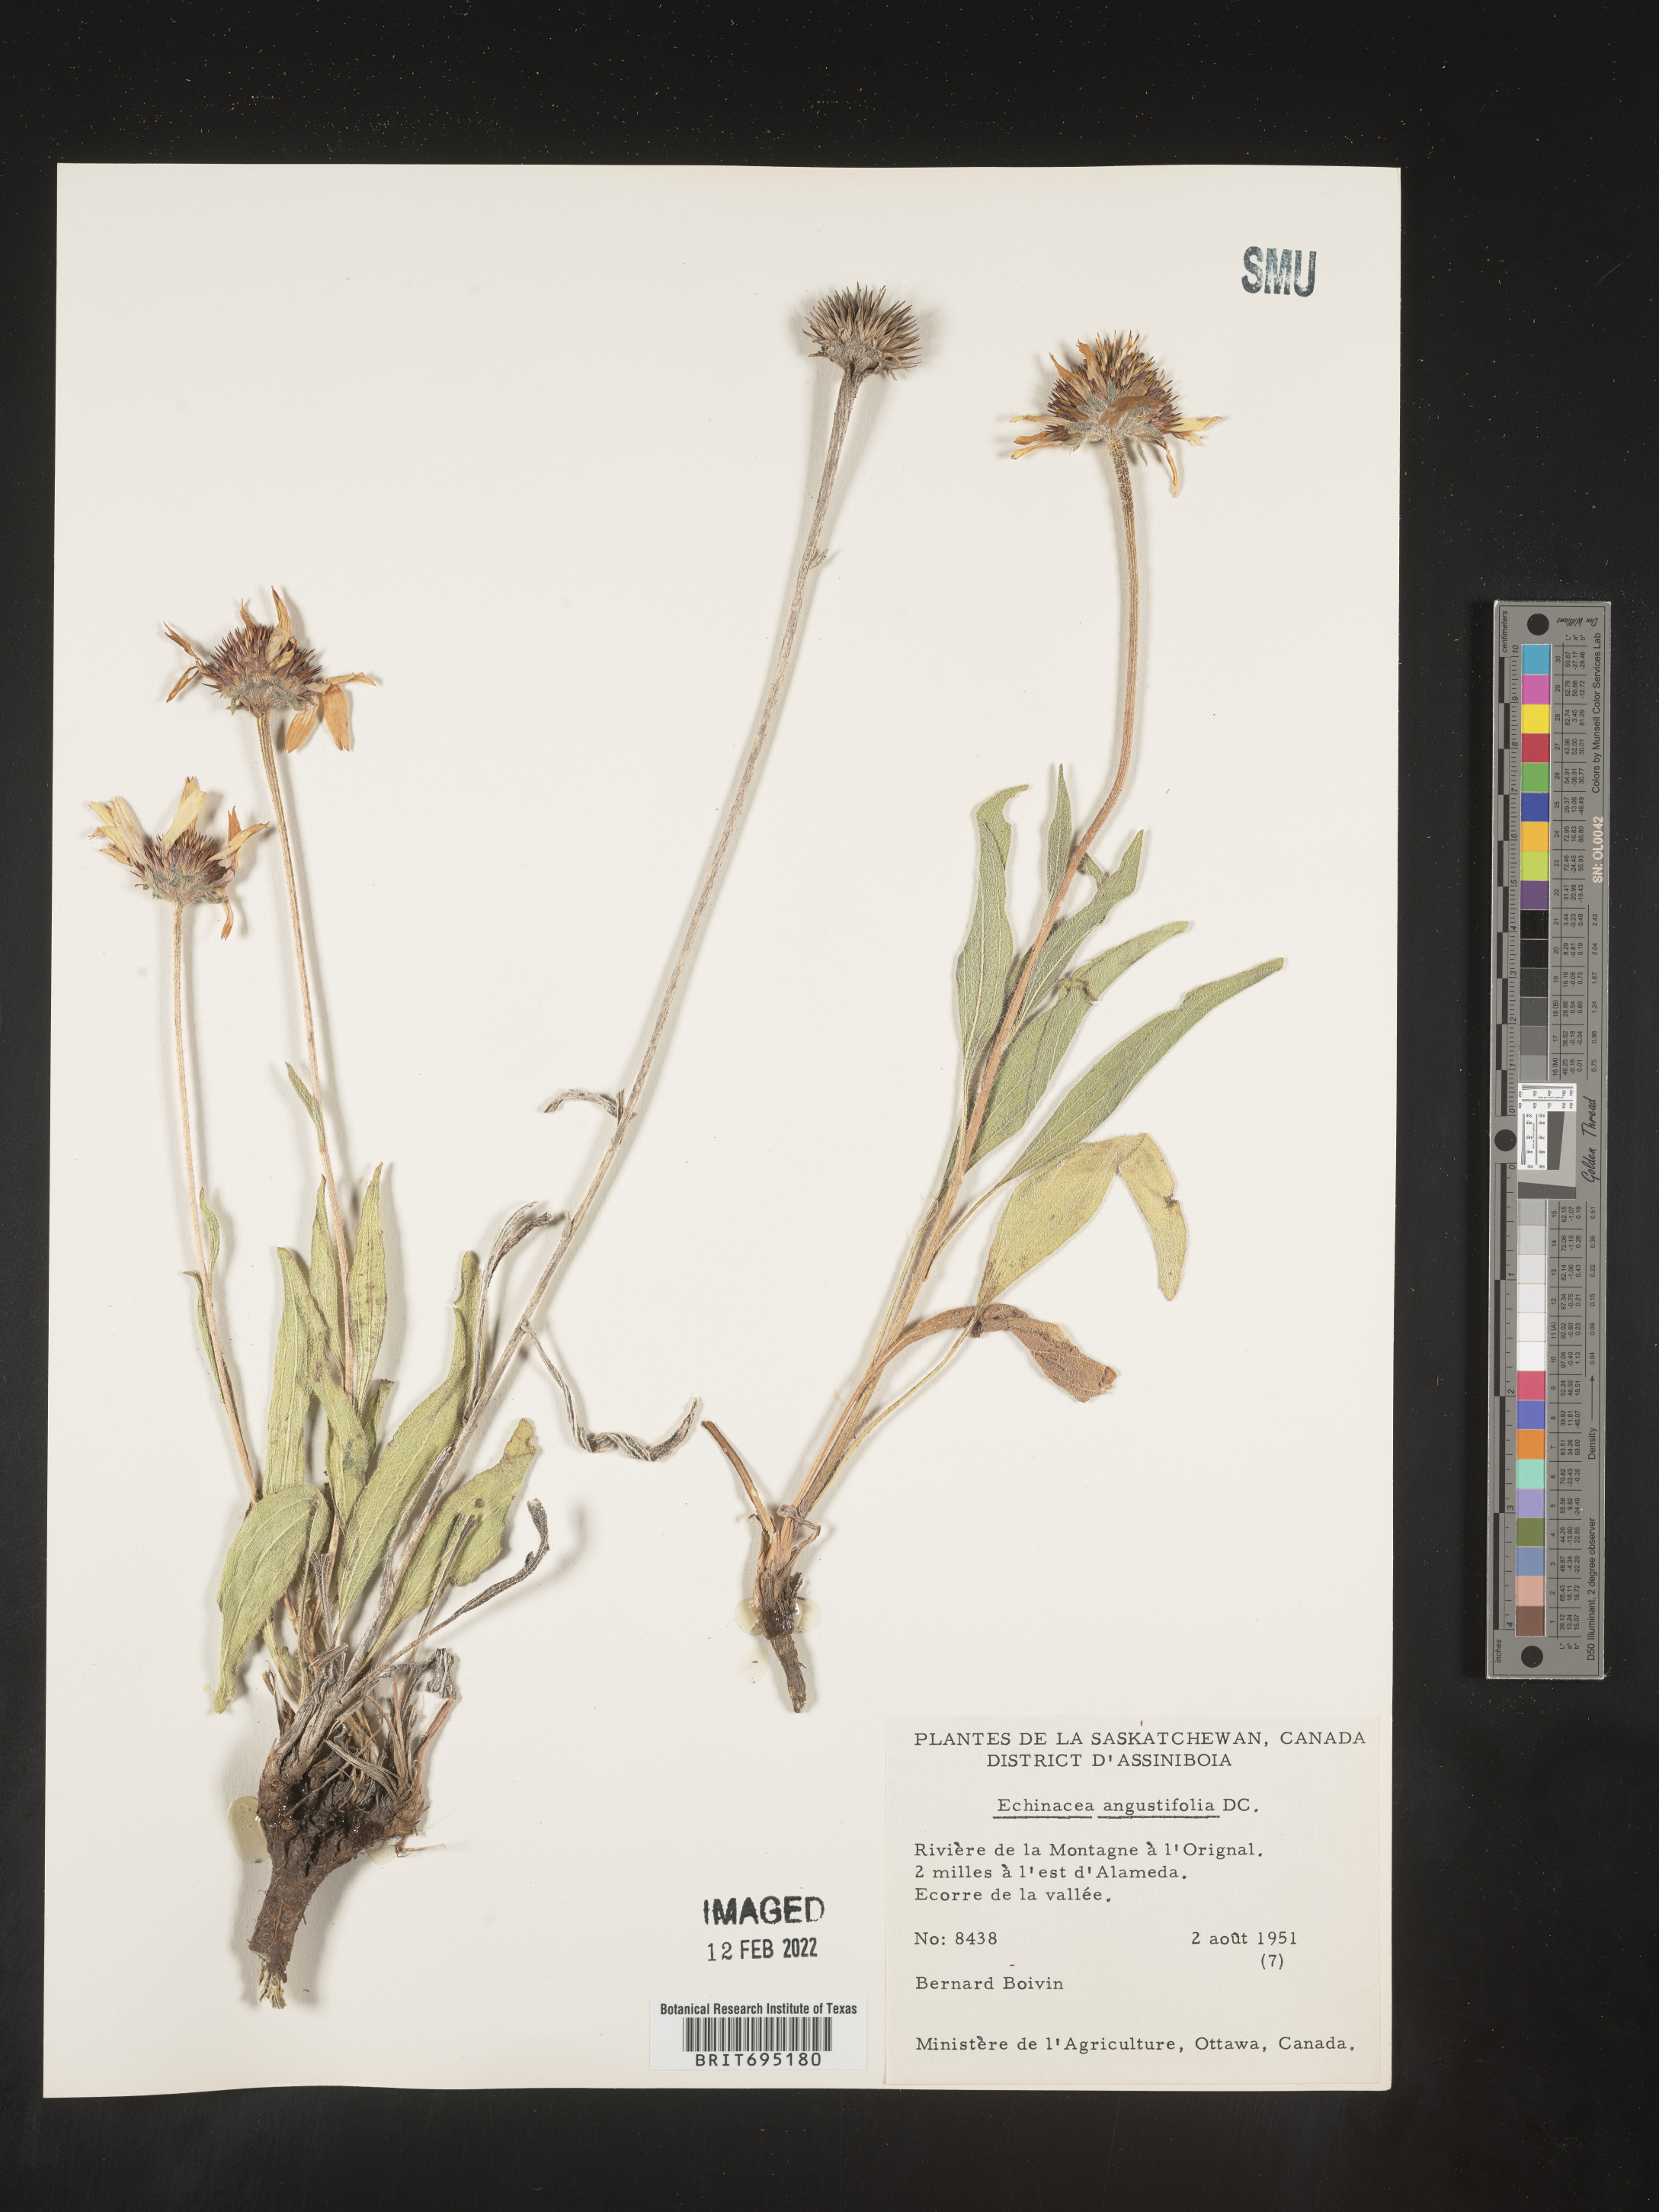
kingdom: Plantae
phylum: Tracheophyta
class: Magnoliopsida
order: Asterales
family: Asteraceae
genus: Echinacea
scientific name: Echinacea angustifolia
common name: Black-sampson echinacea
